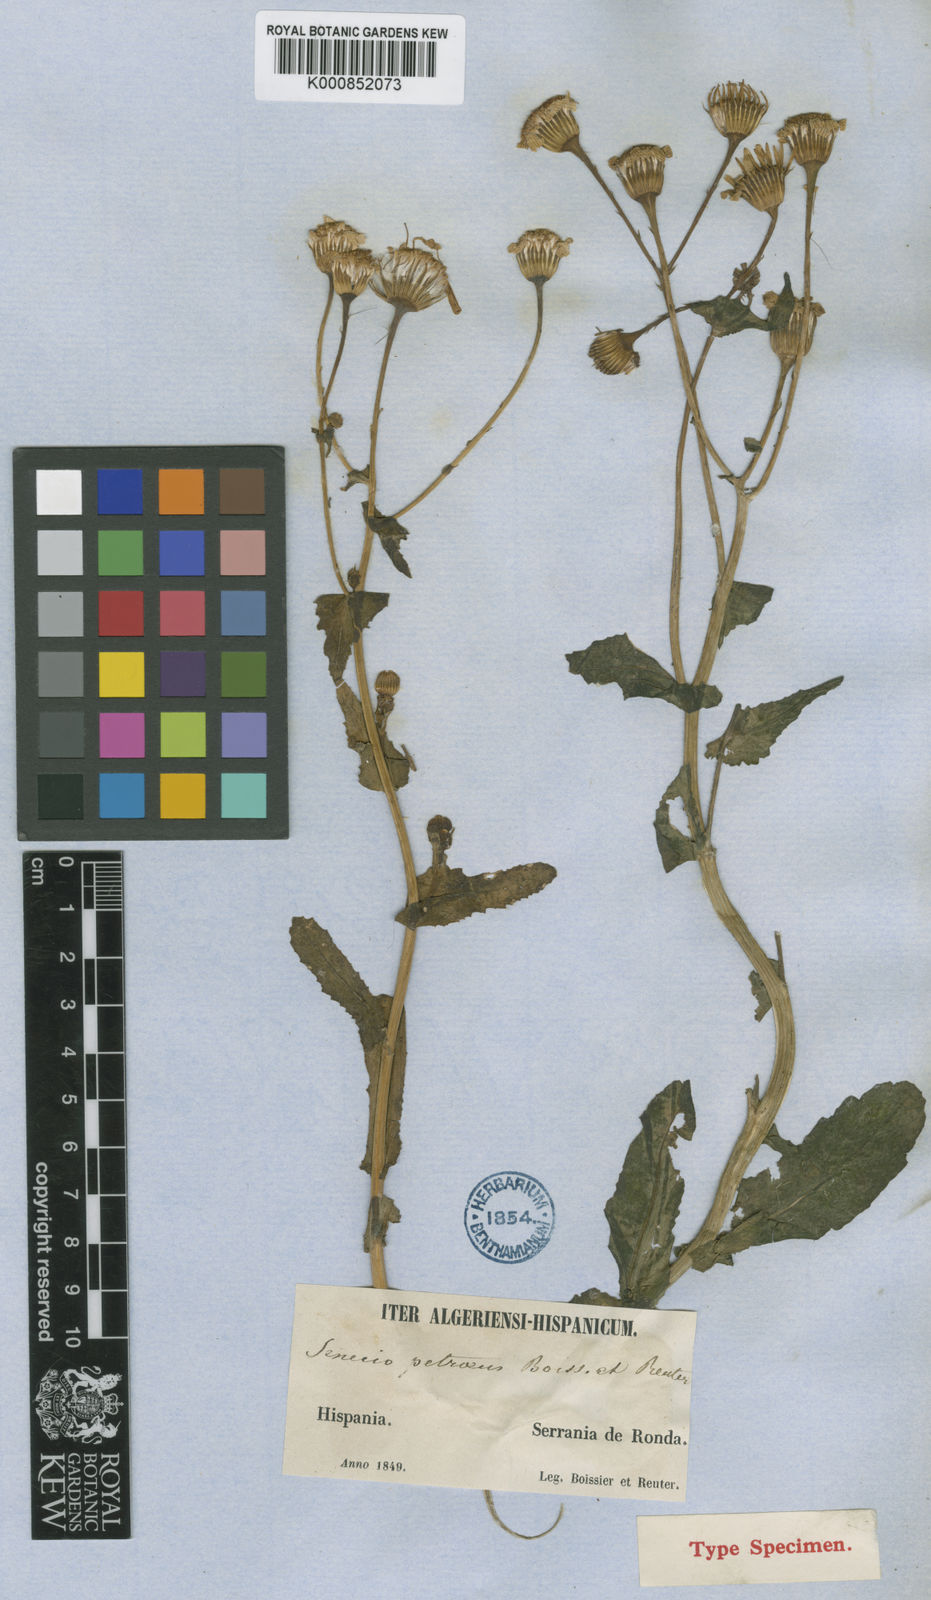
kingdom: Plantae
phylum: Tracheophyta
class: Magnoliopsida
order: Asterales
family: Asteraceae
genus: Senecio
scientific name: Senecio petraeus
